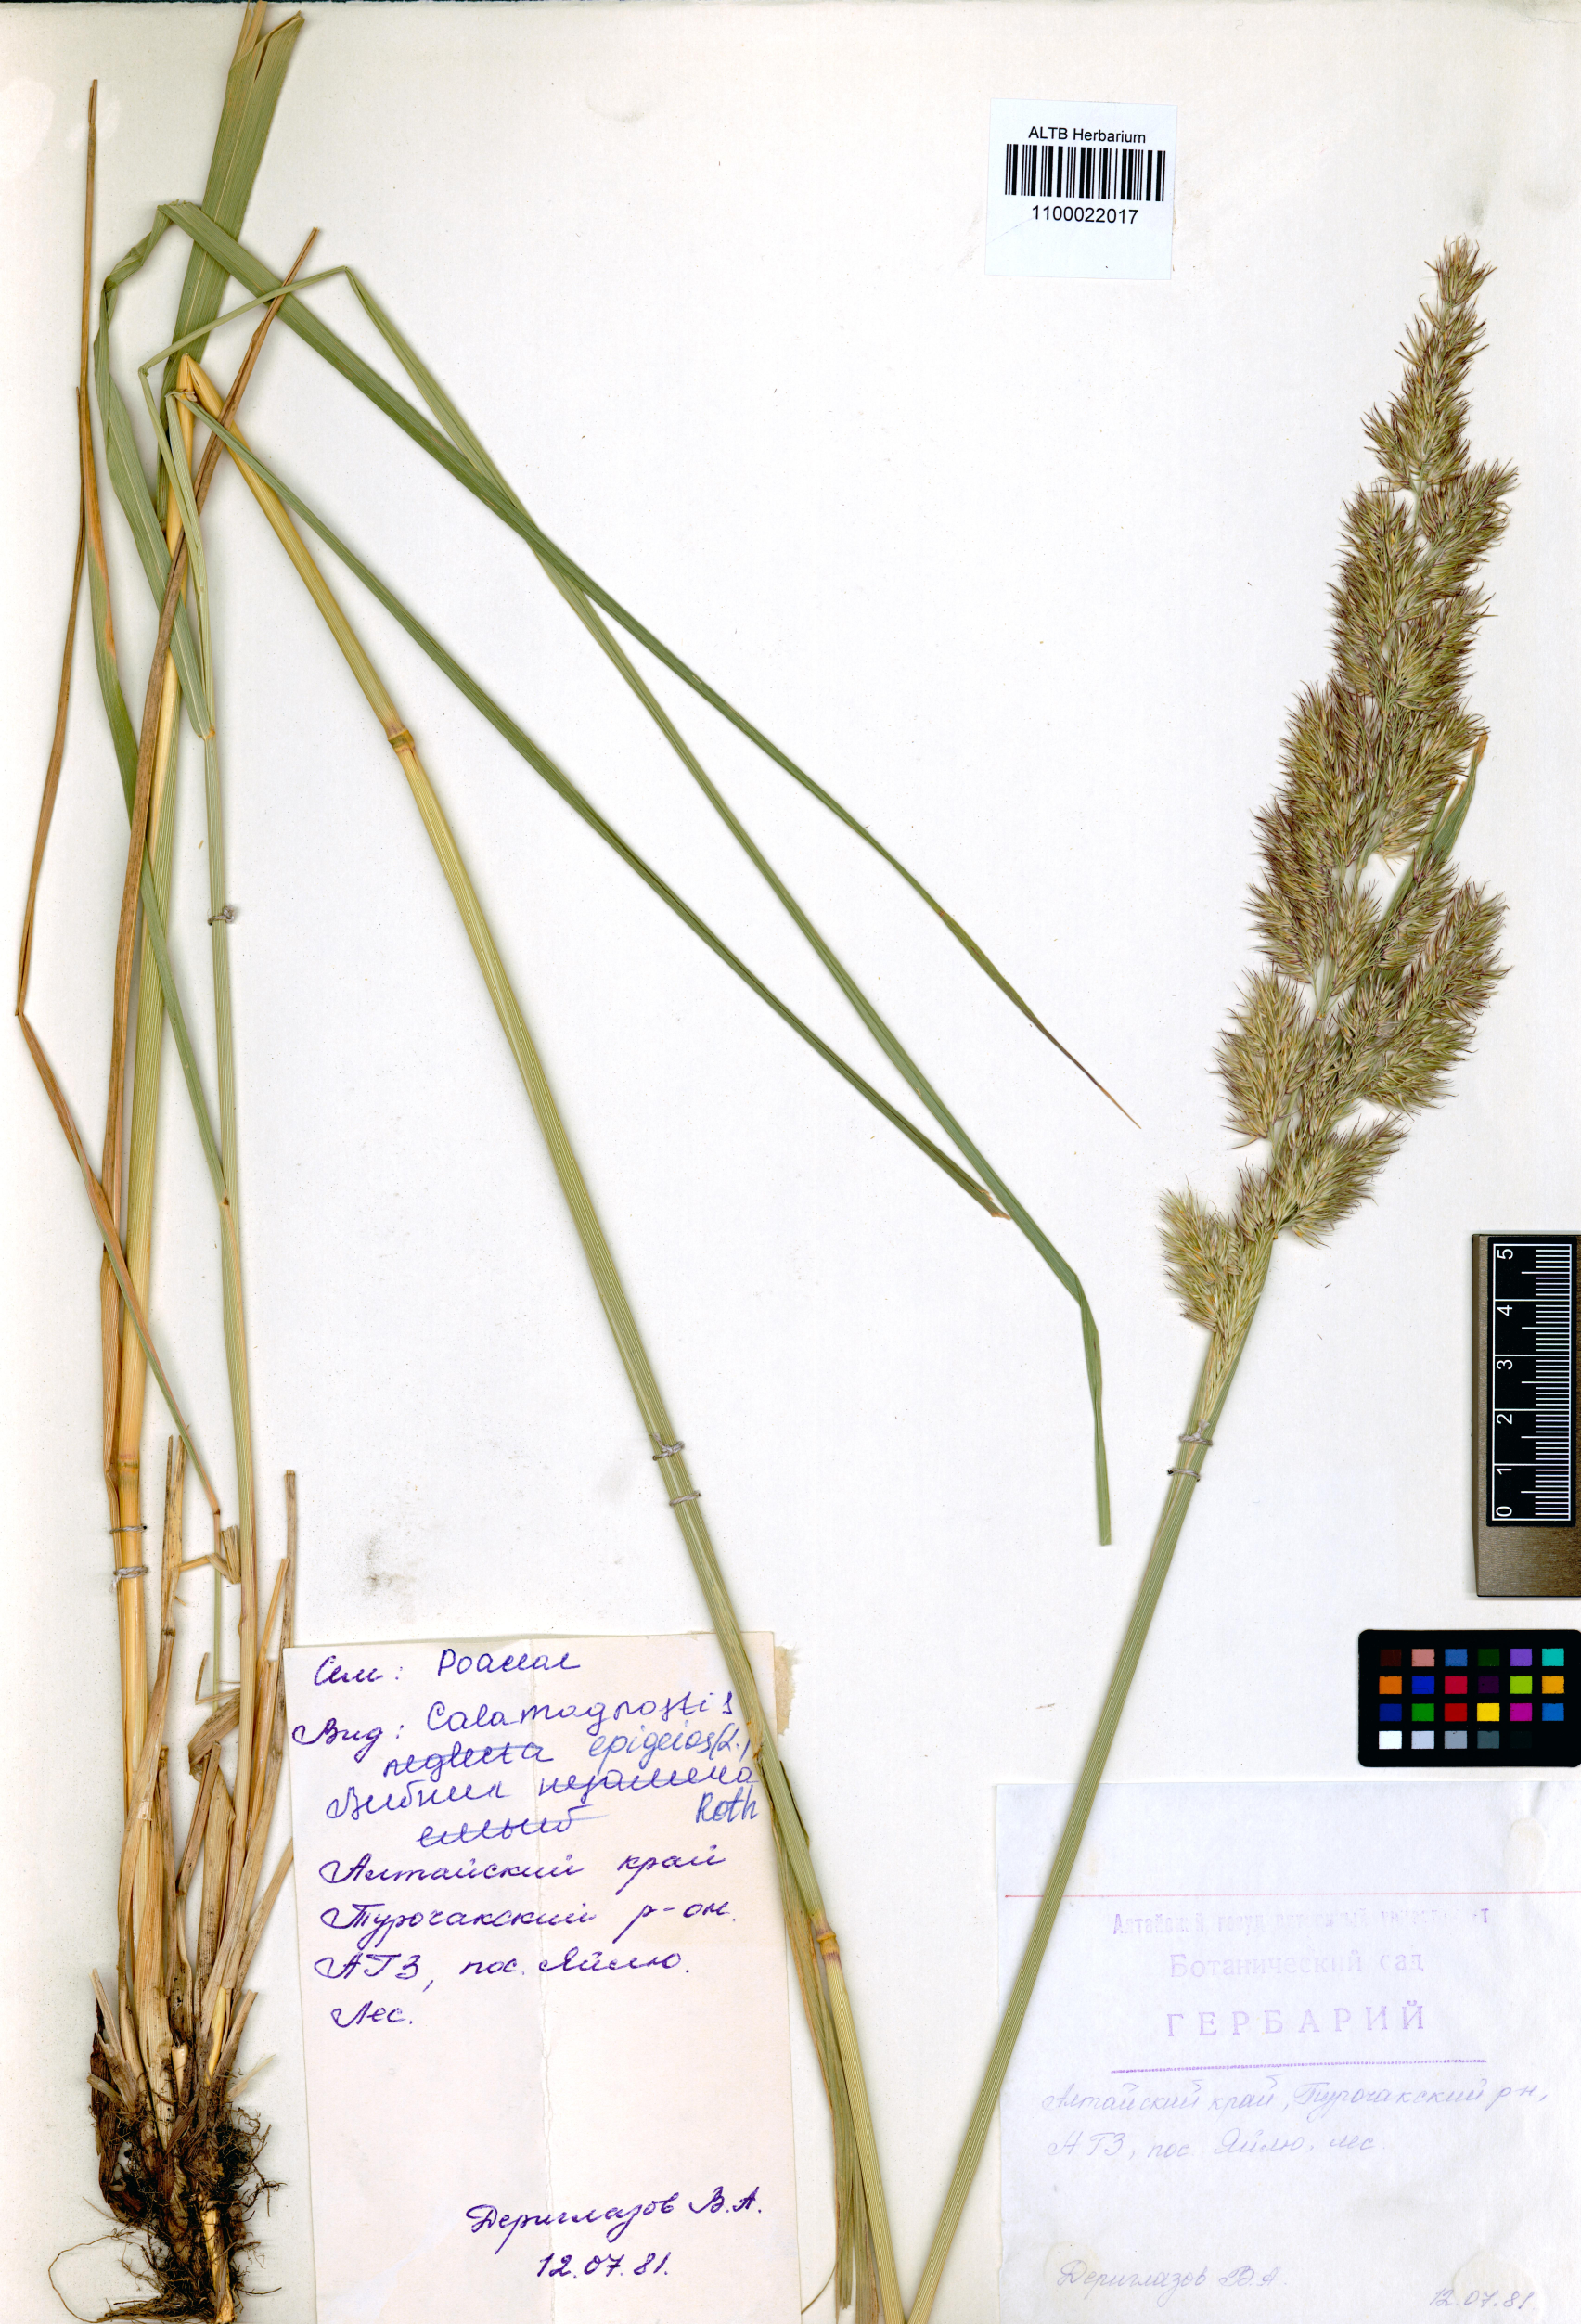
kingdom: Plantae
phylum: Tracheophyta
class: Liliopsida
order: Poales
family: Poaceae
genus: Calamagrostis
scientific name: Calamagrostis epigejos
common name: Wood small-reed
